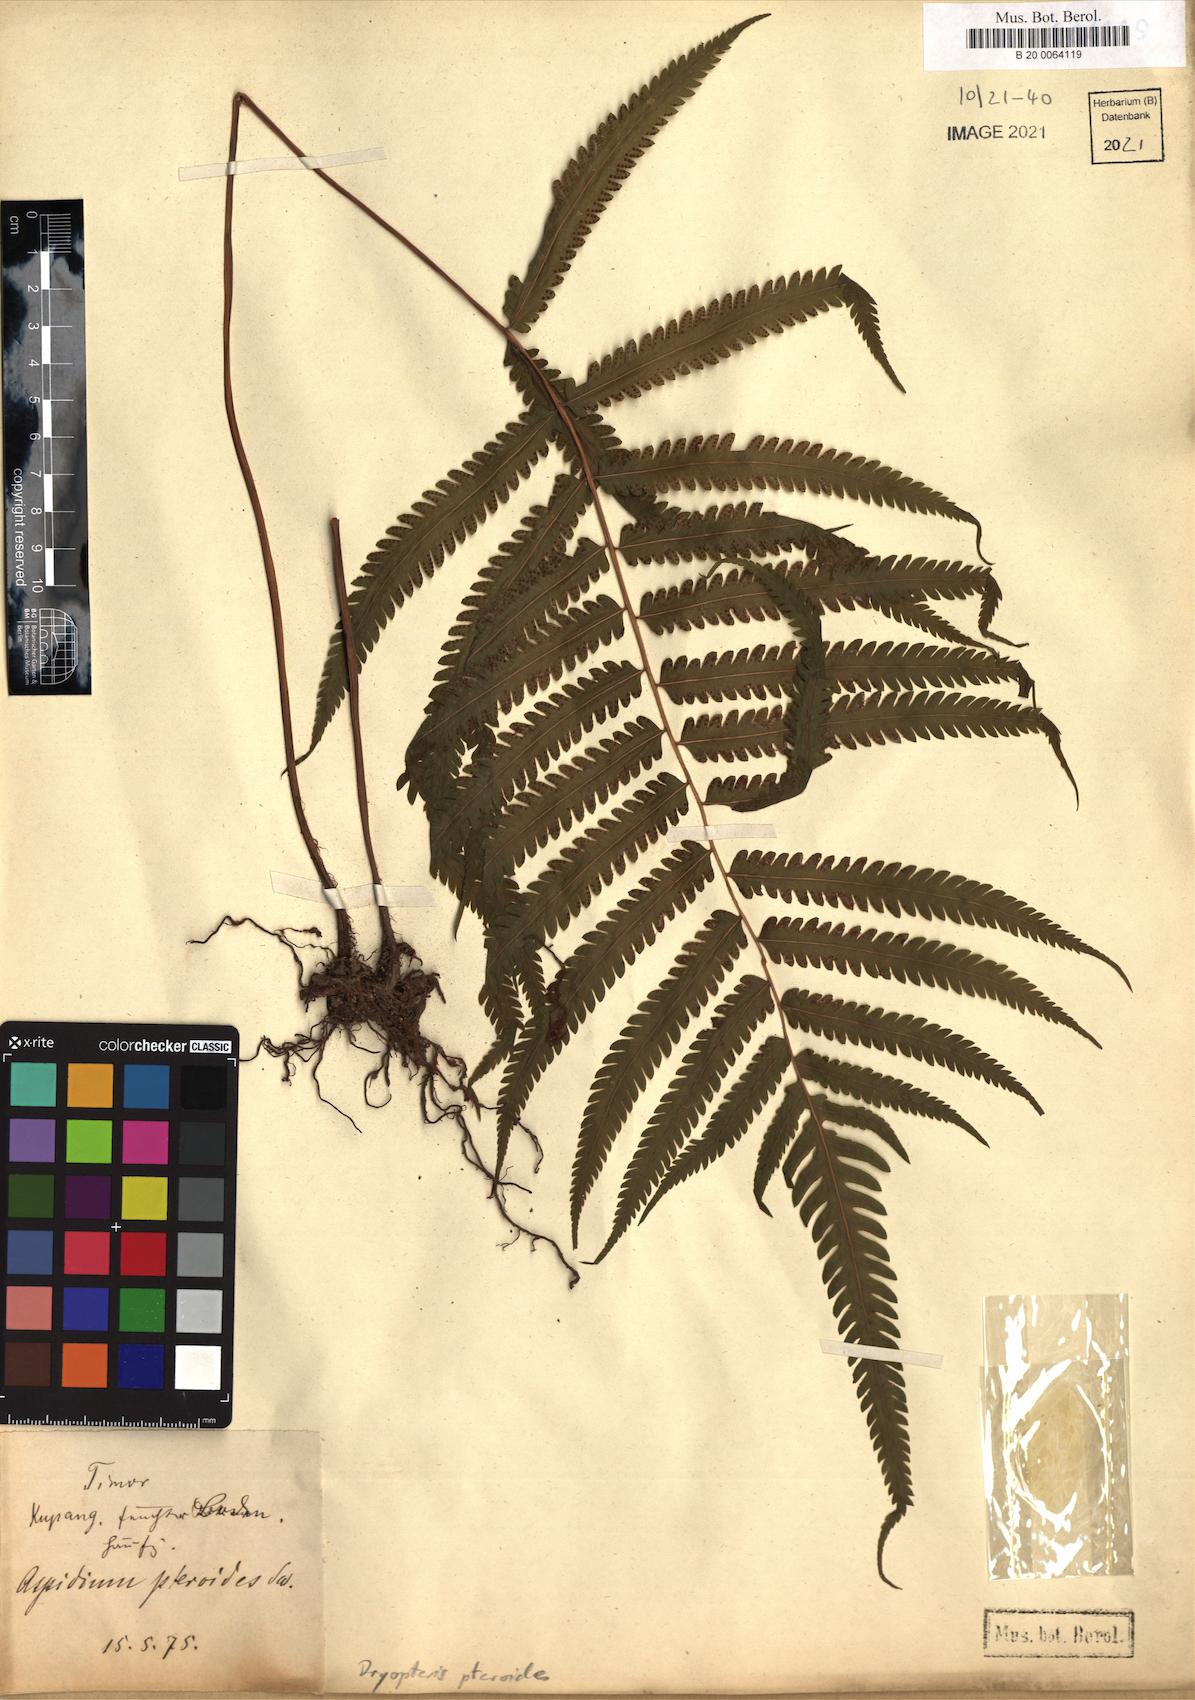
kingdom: Plantae
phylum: Tracheophyta
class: Polypodiopsida
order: Polypodiales
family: Tectariaceae
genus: Tectaria
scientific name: Tectaria paradoxa
